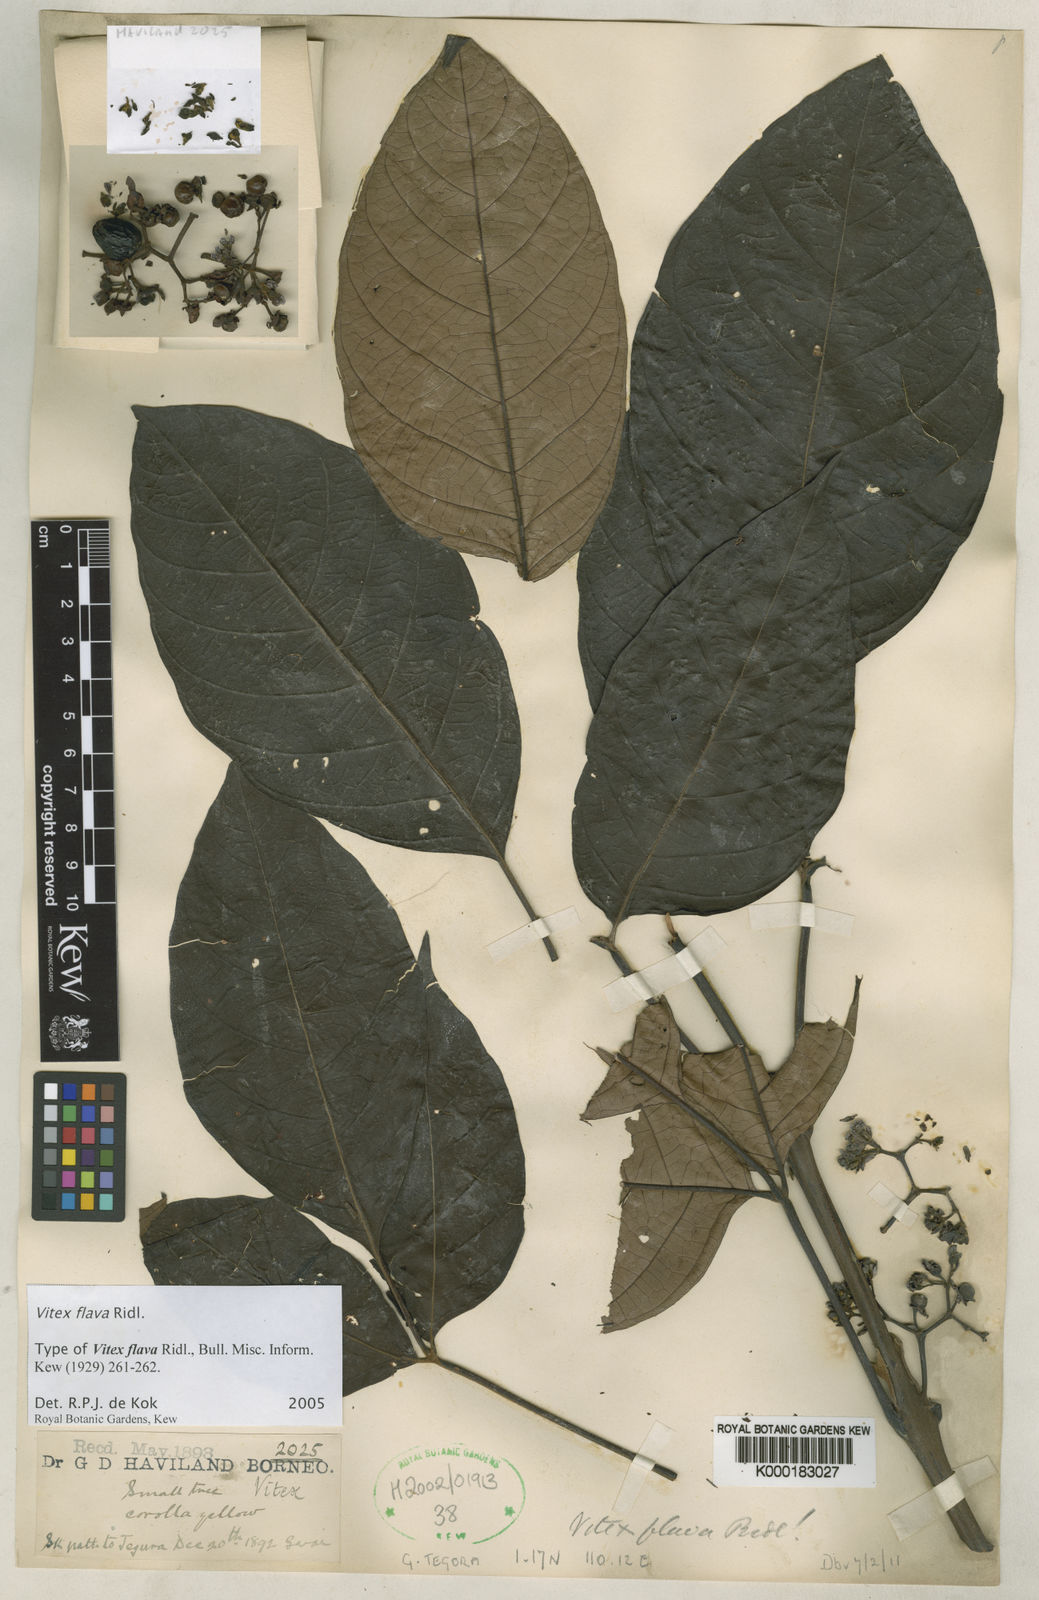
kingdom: Plantae
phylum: Tracheophyta
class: Magnoliopsida
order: Lamiales
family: Lamiaceae
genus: Vitex
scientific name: Vitex flava
